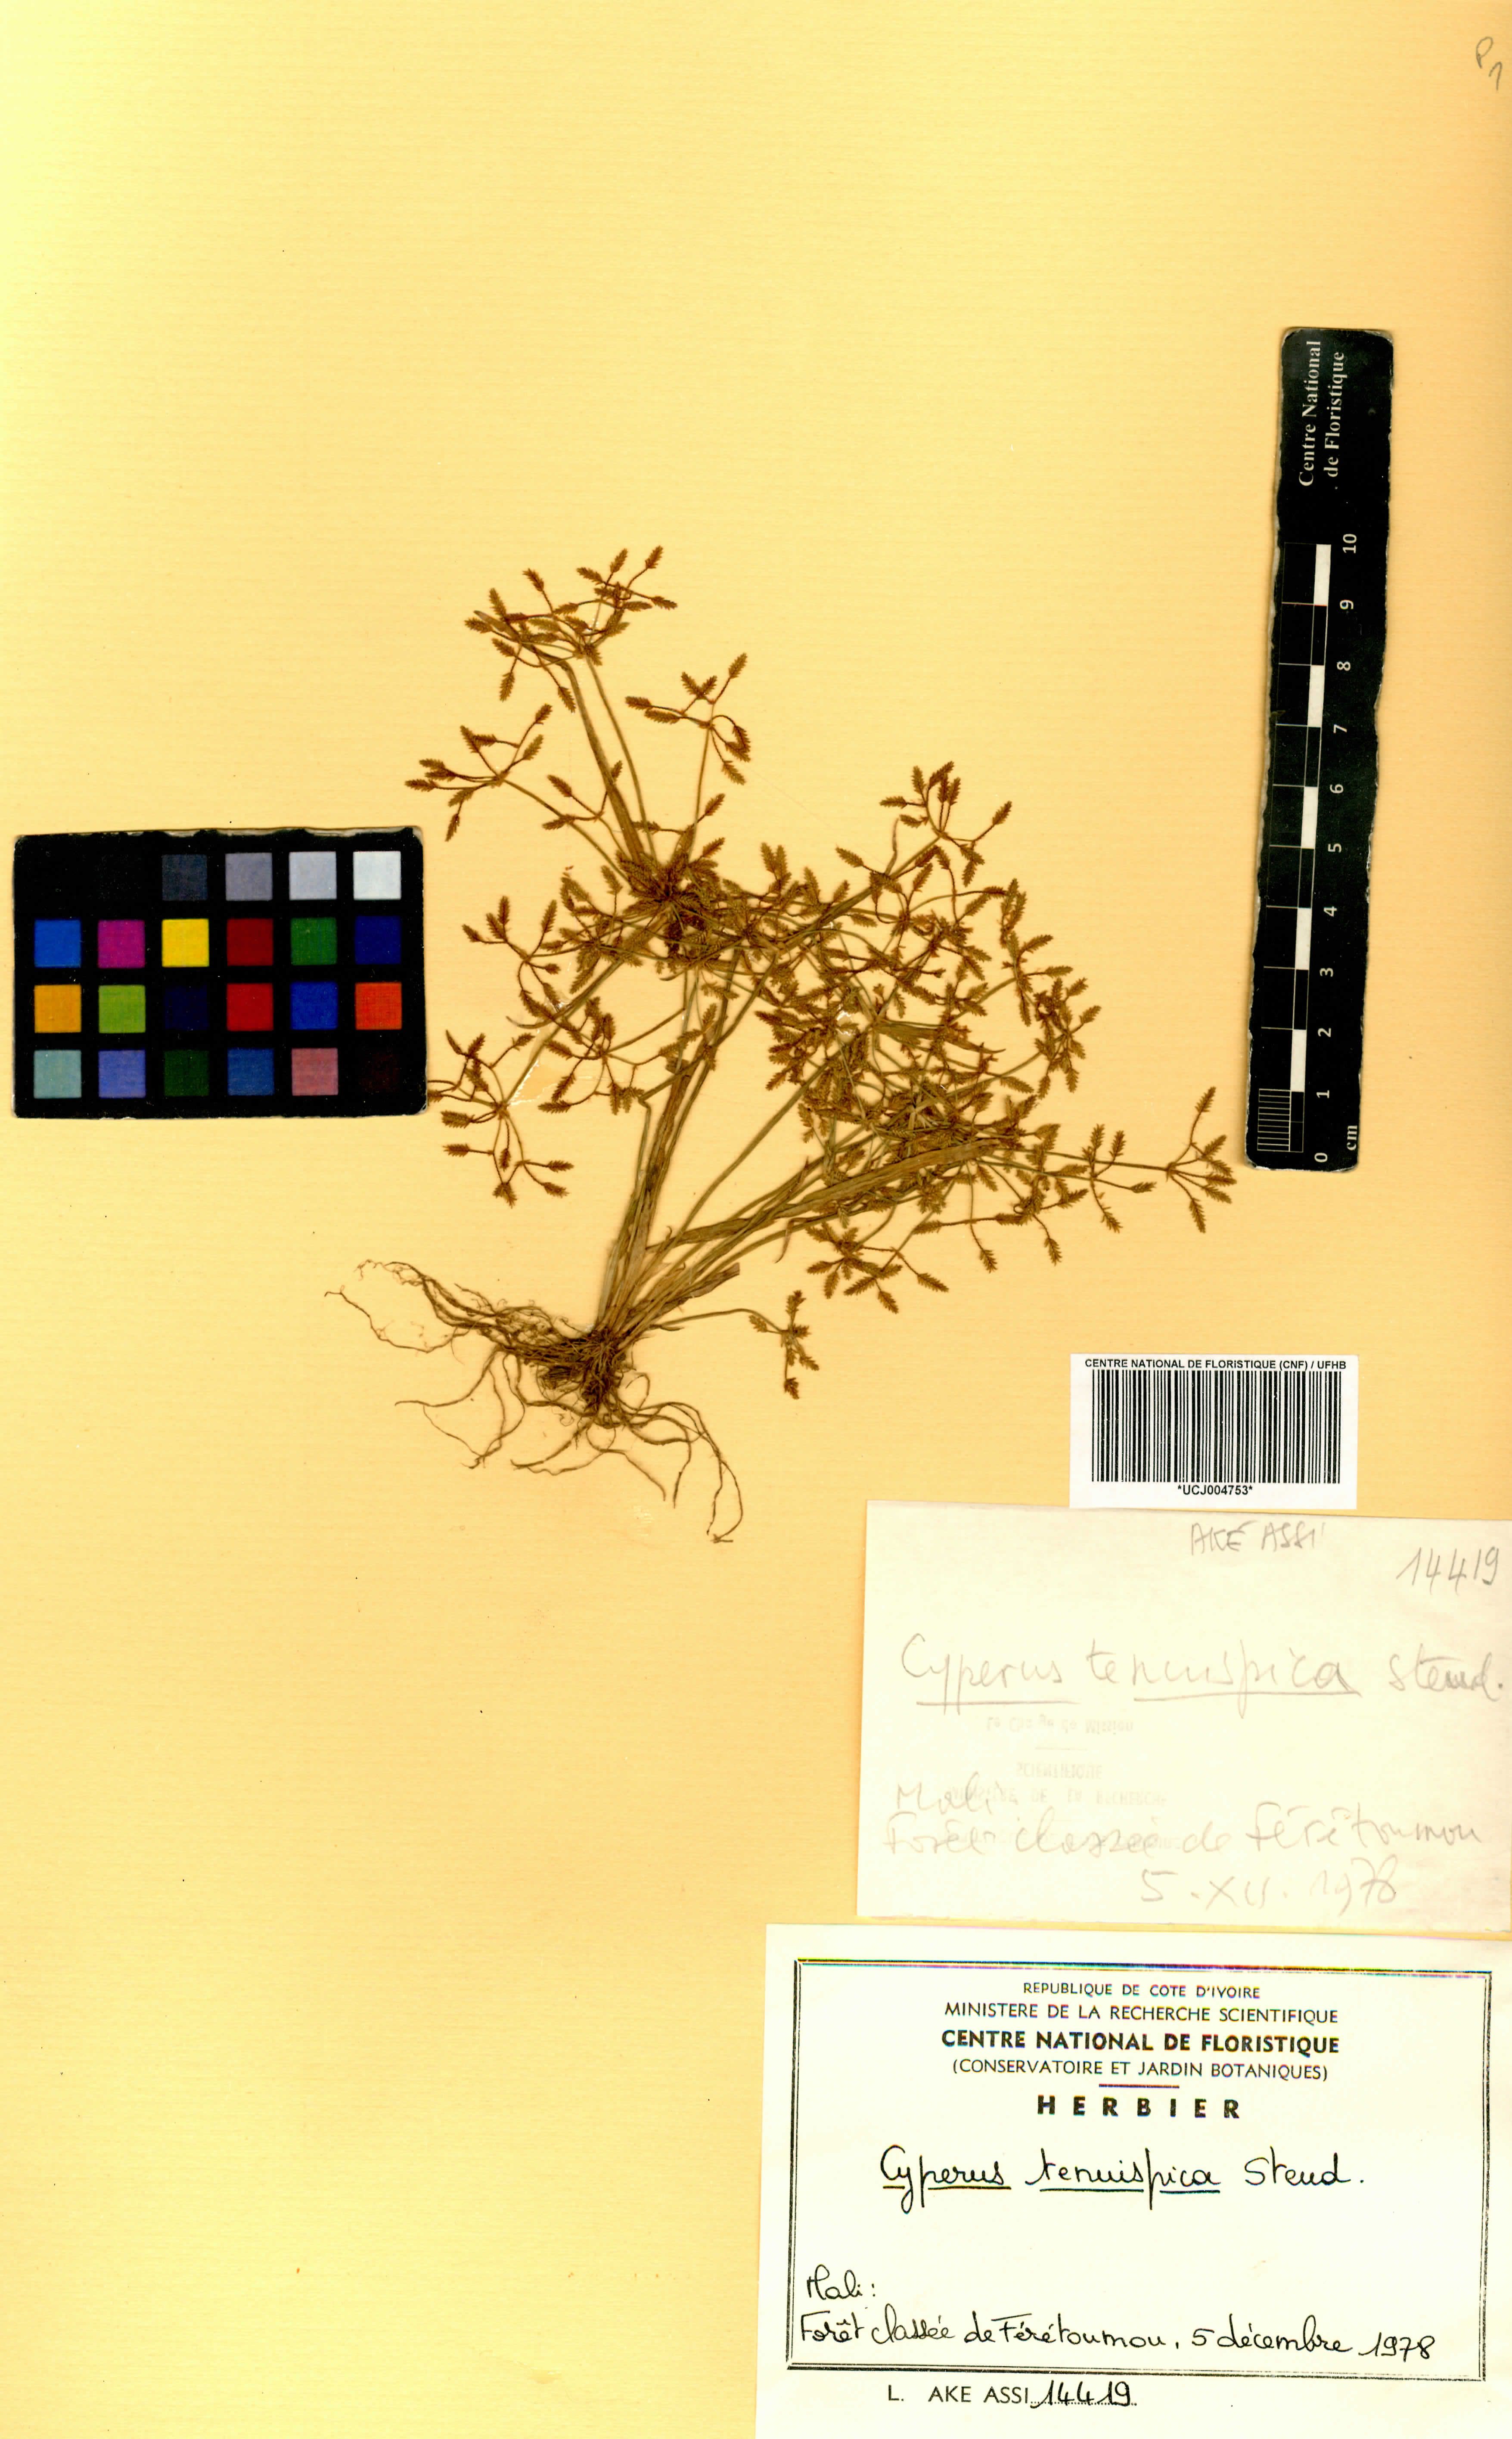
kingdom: Plantae
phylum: Tracheophyta
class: Liliopsida
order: Poales
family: Cyperaceae
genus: Cyperus
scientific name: Cyperus tenuispica
